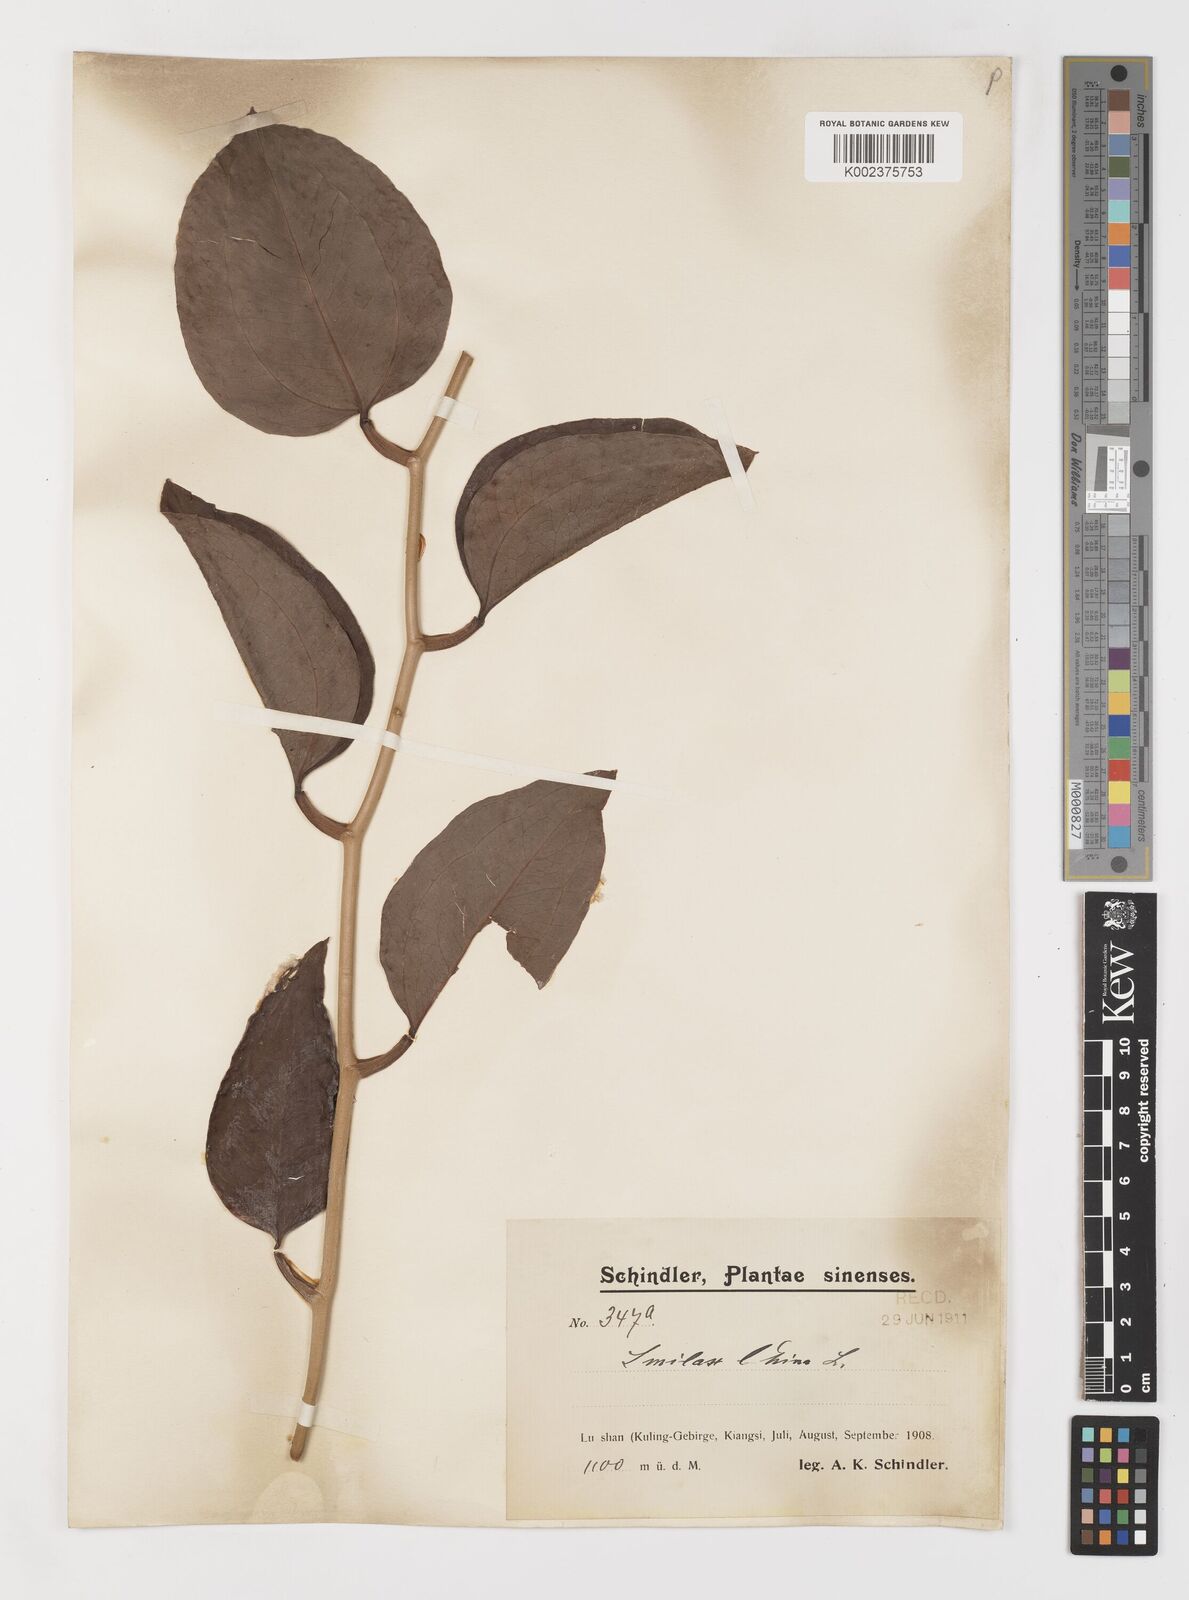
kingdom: Plantae
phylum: Tracheophyta
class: Liliopsida
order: Liliales
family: Smilacaceae
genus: Smilax
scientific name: Smilax china
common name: Chinaroot
